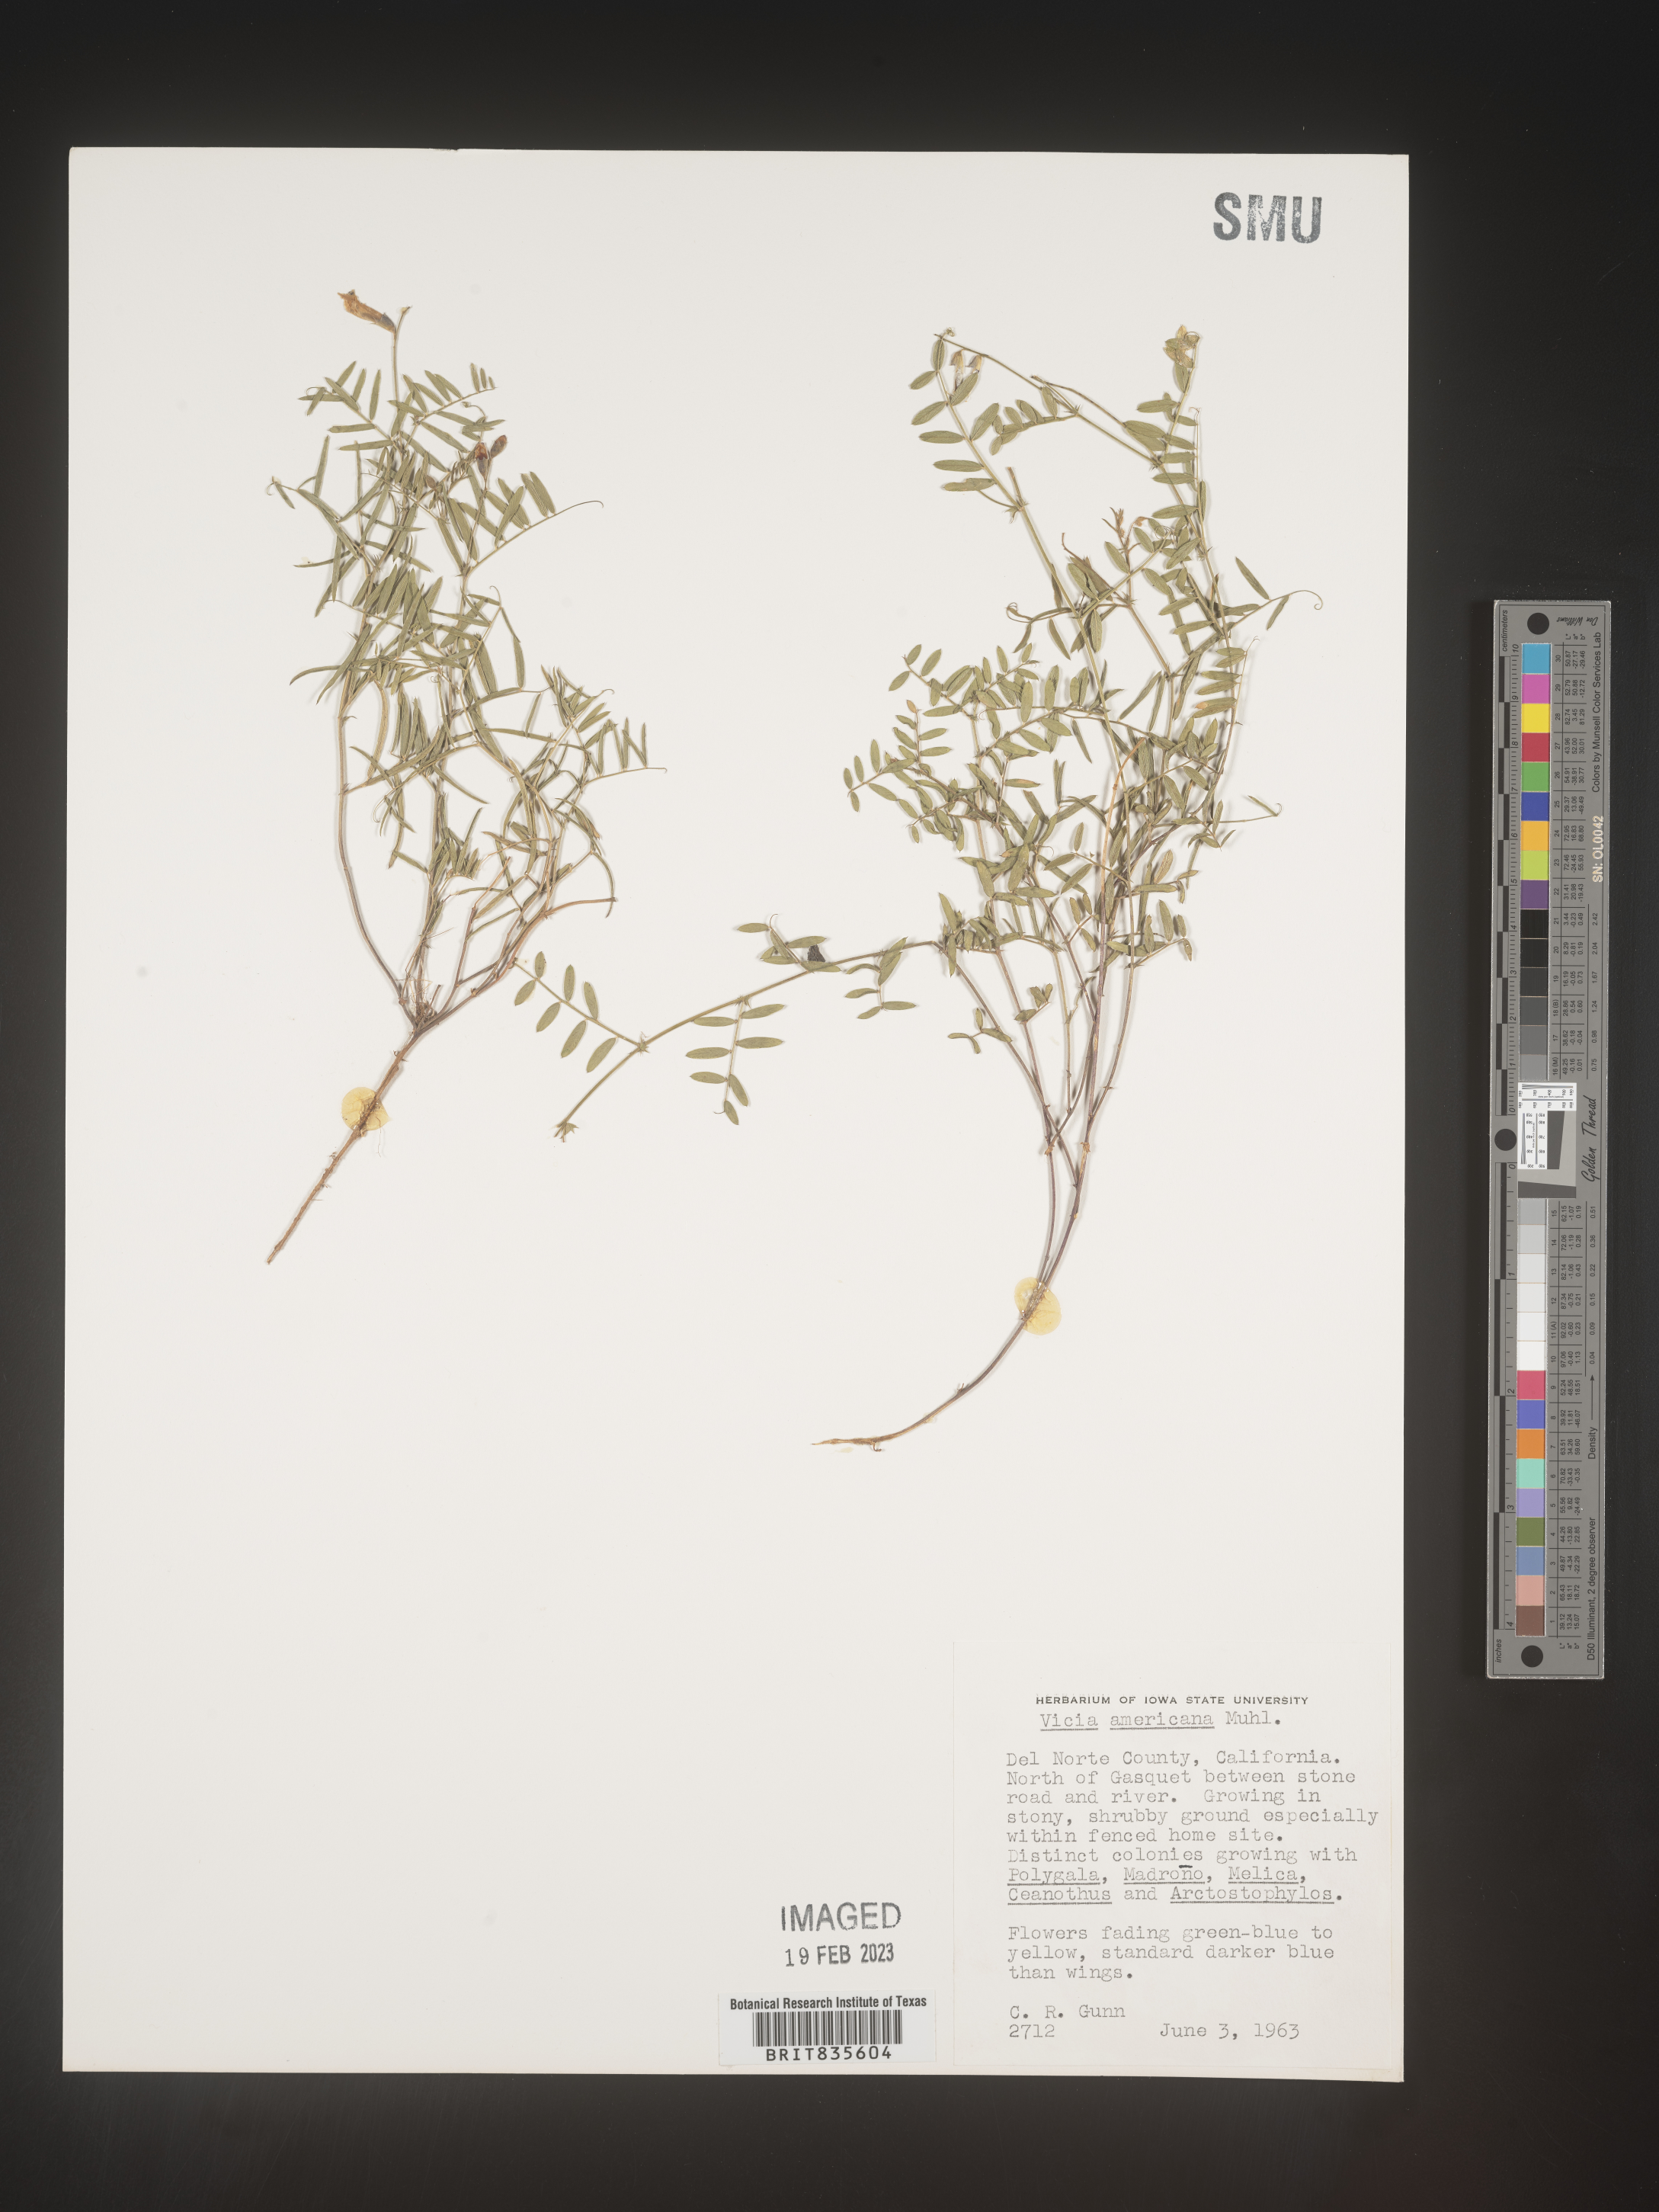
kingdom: Plantae
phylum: Tracheophyta
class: Magnoliopsida
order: Fabales
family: Fabaceae
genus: Vicia
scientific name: Vicia americana
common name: American vetch
